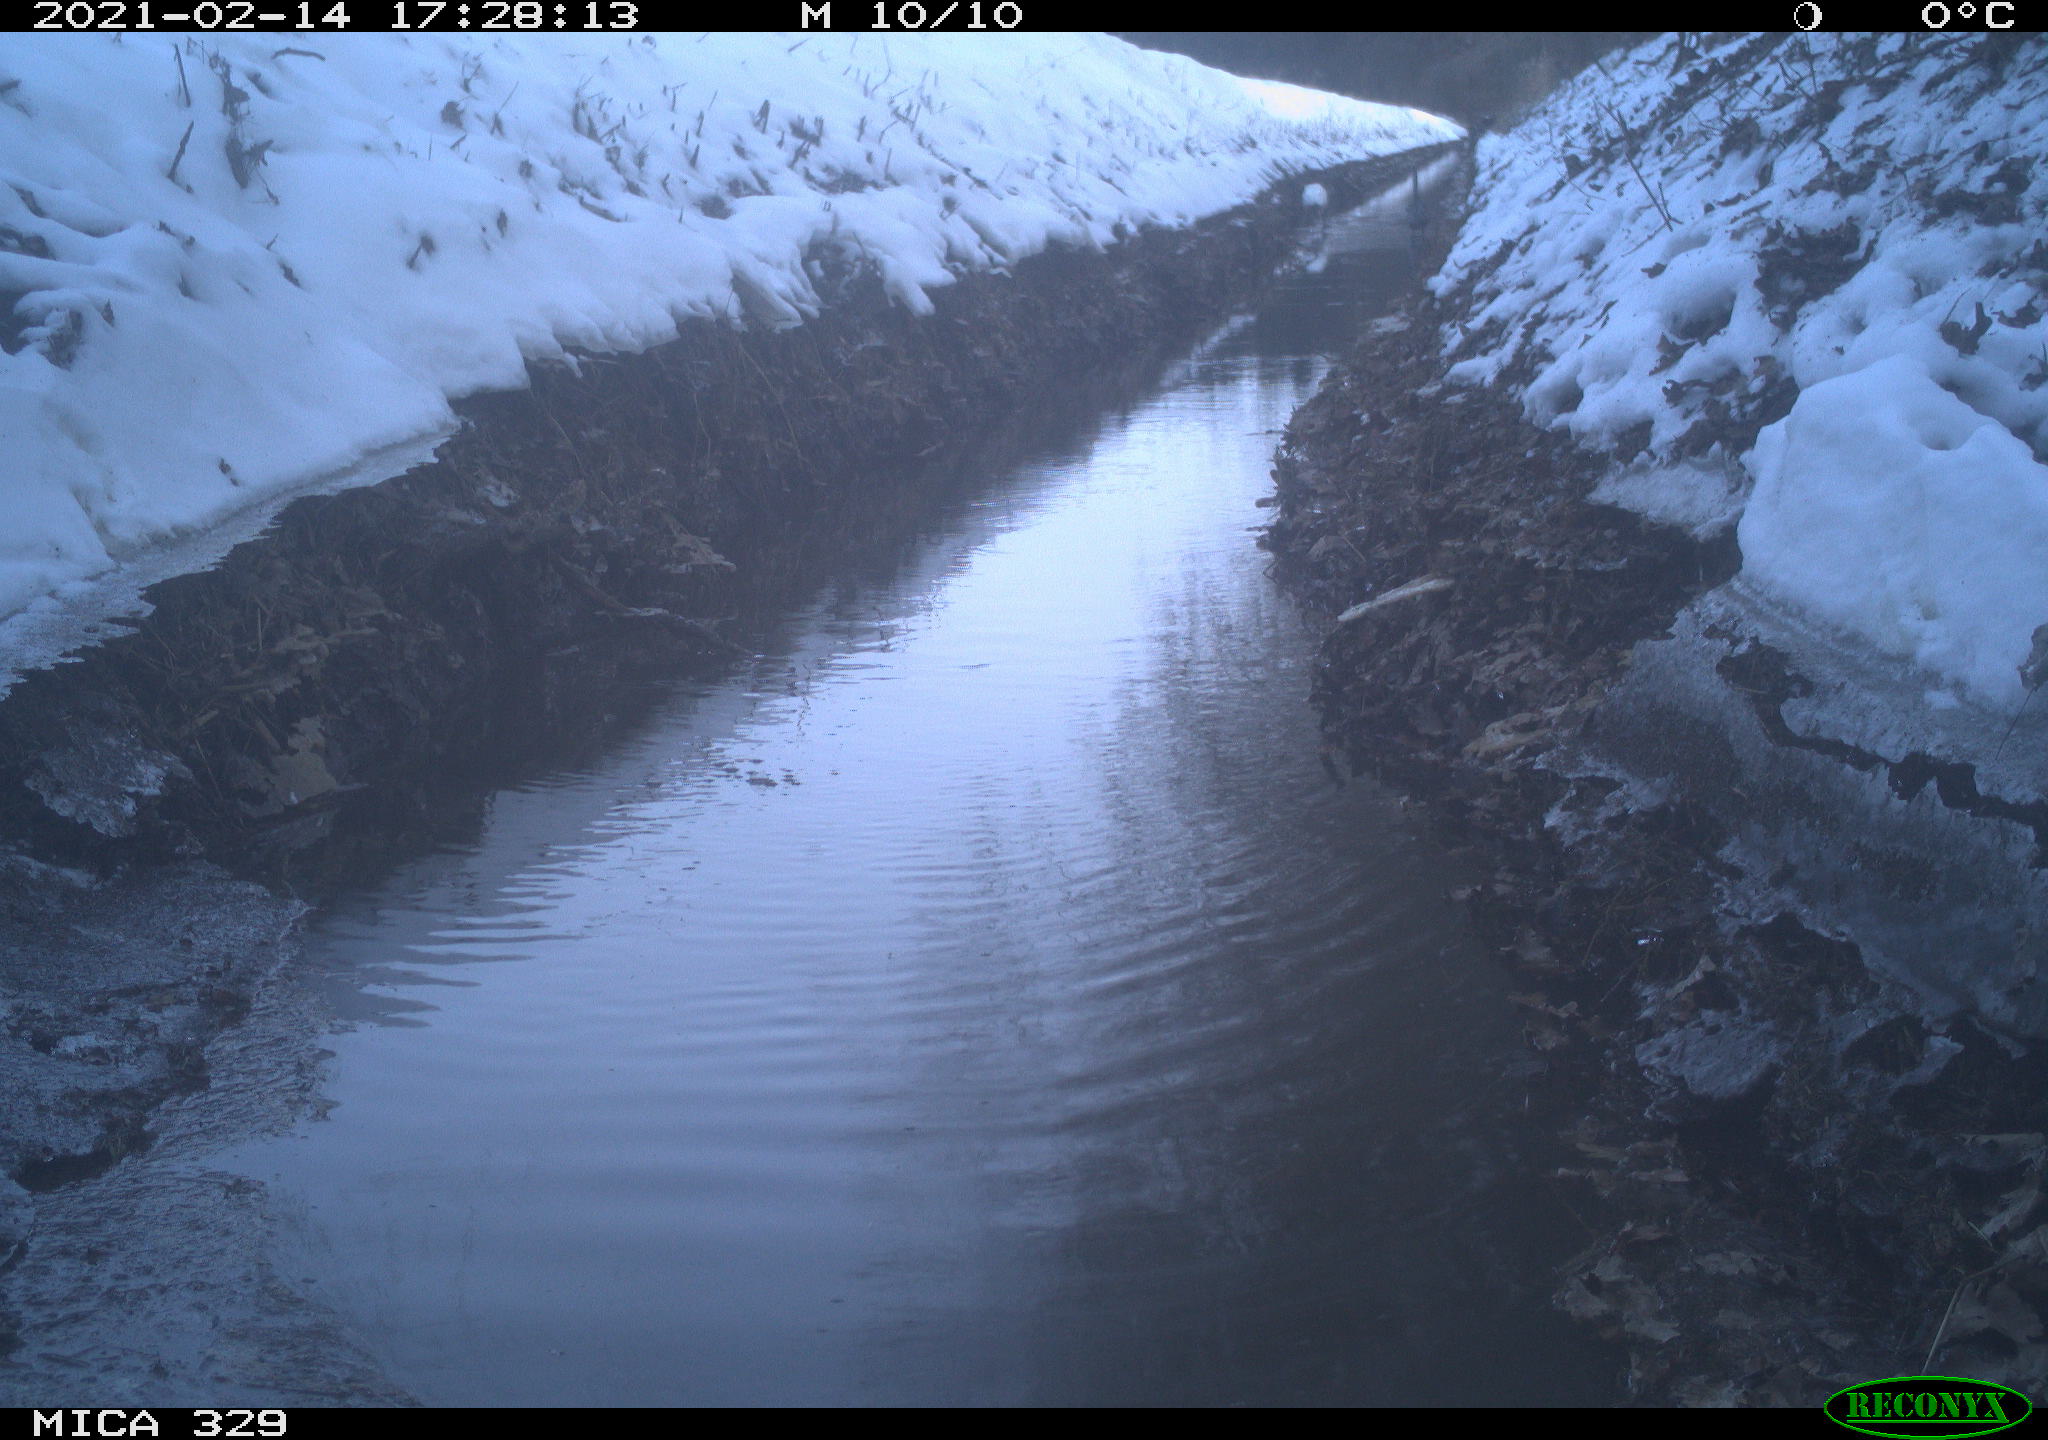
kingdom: Animalia
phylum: Chordata
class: Aves
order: Pelecaniformes
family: Ardeidae
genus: Ardea
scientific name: Ardea cinerea
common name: Grey heron
